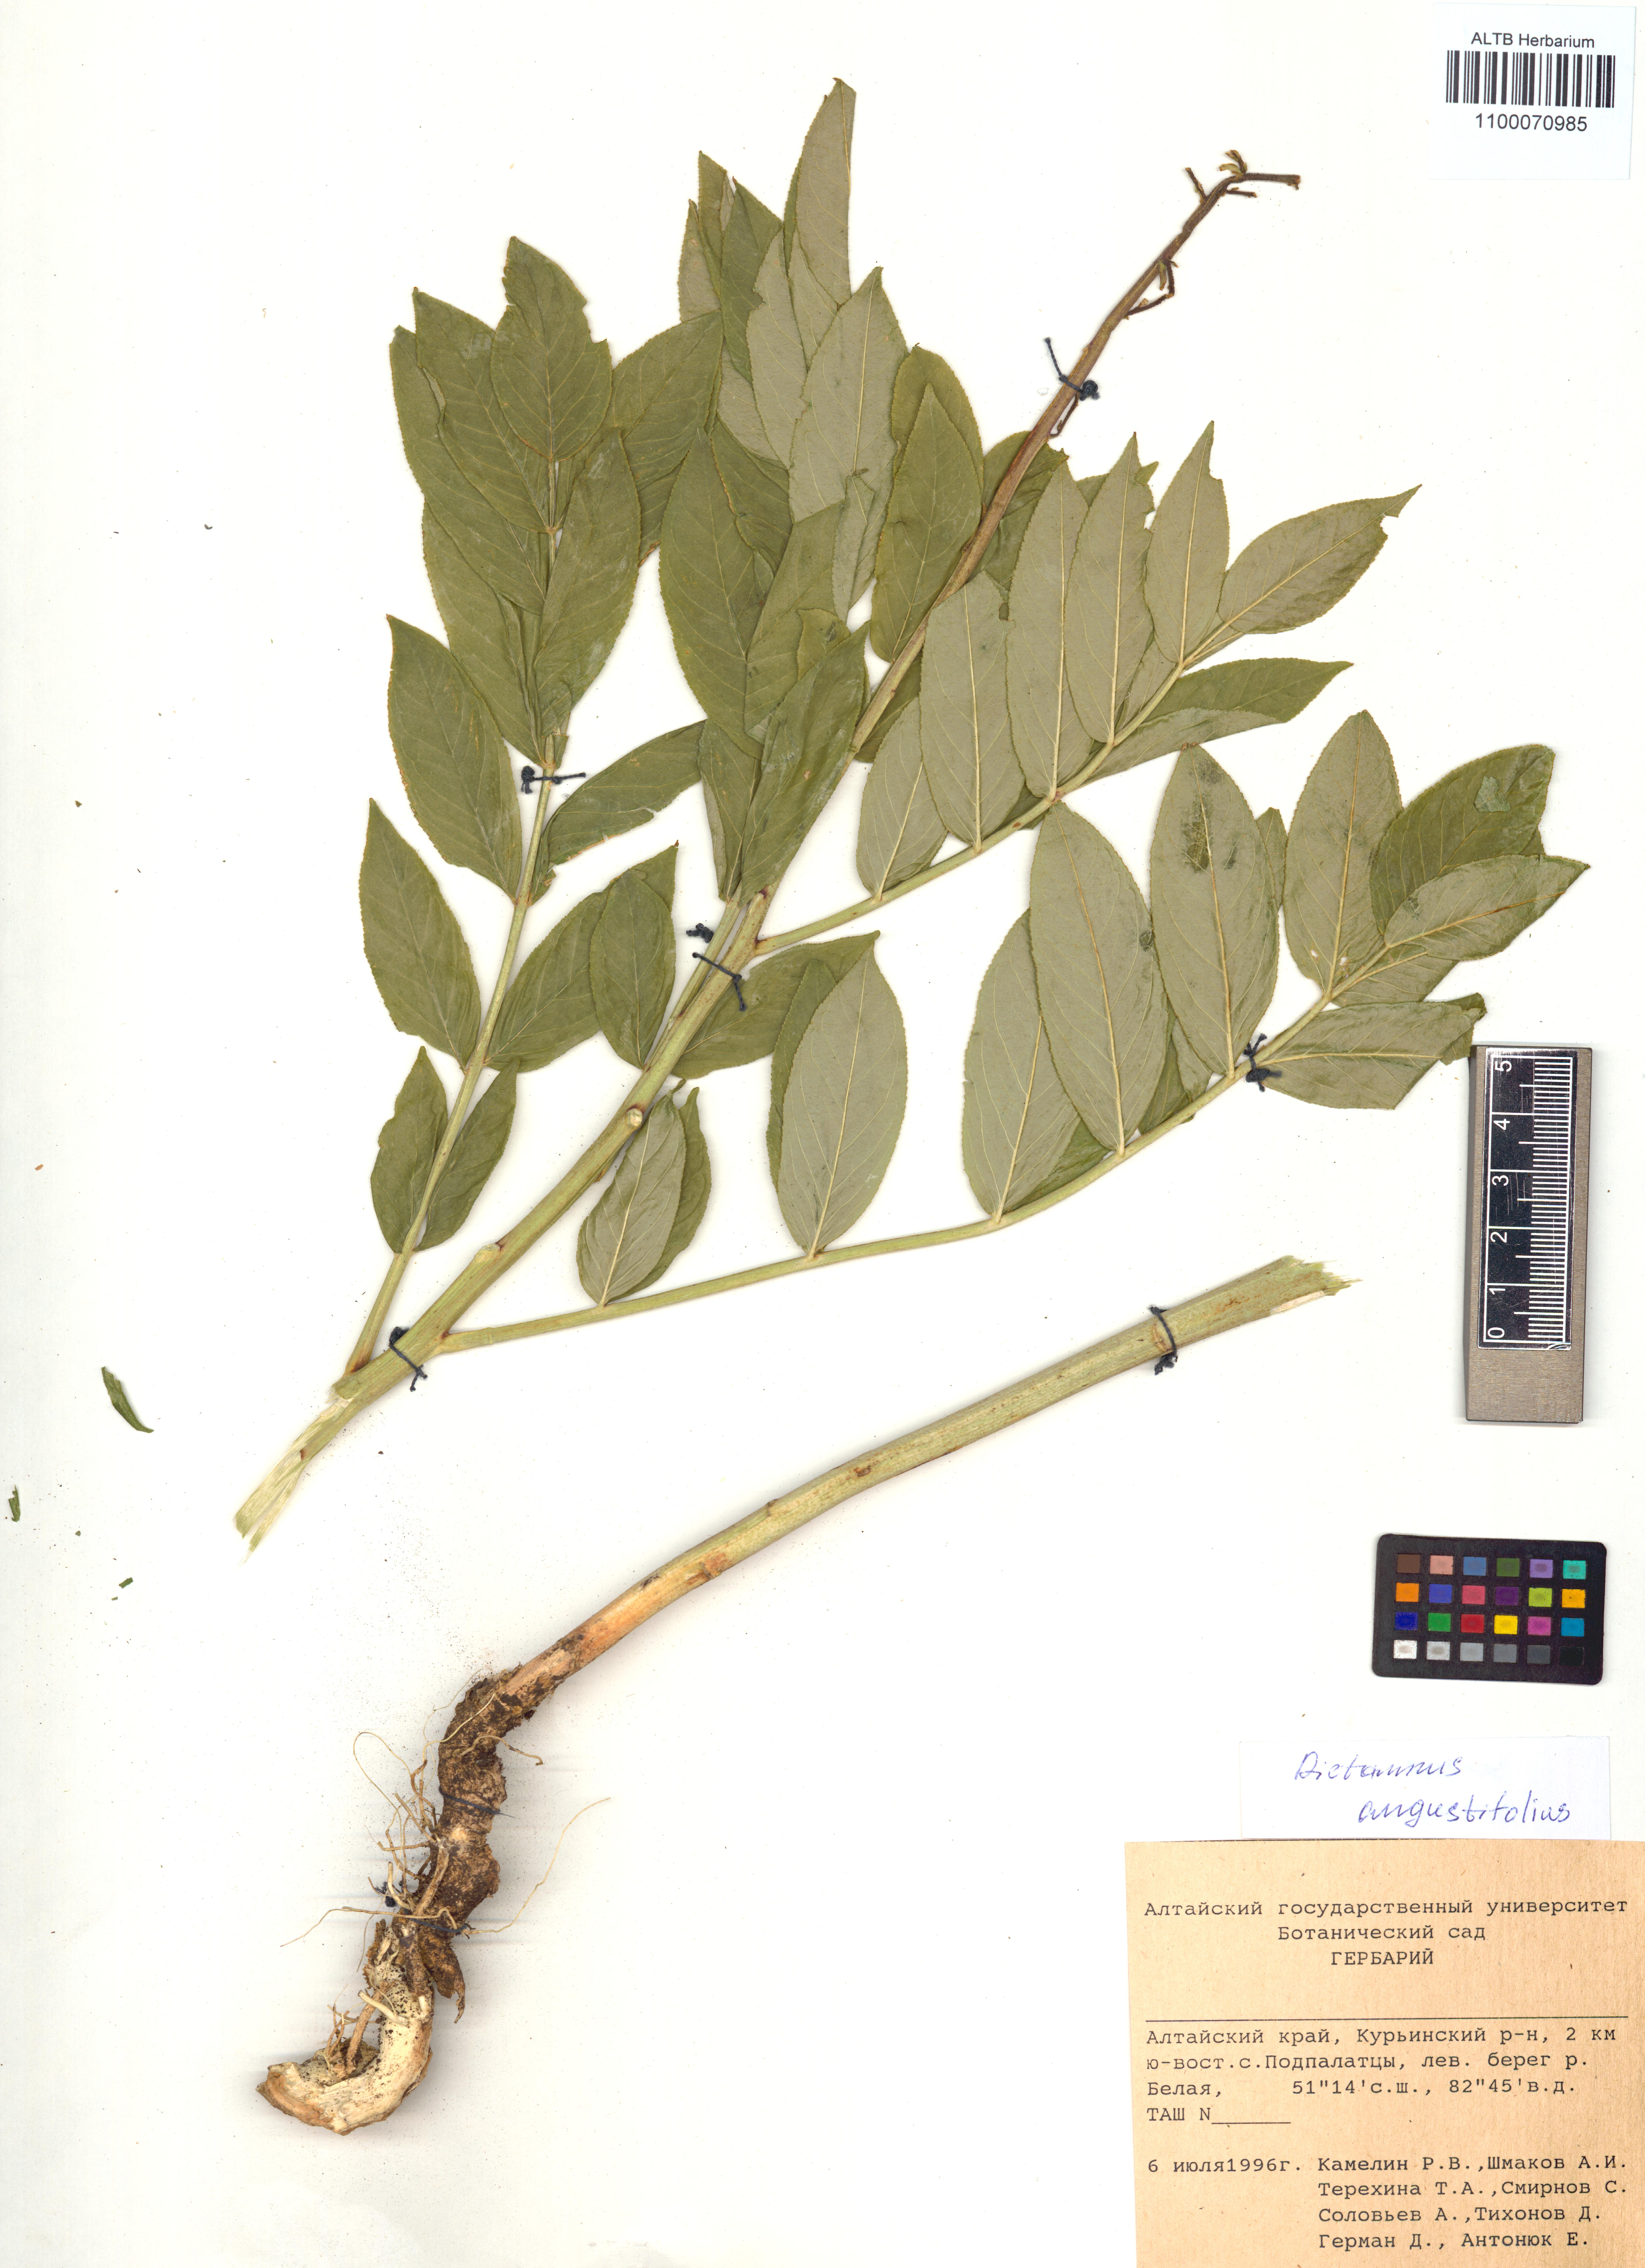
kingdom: Plantae
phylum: Tracheophyta
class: Magnoliopsida
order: Sapindales
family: Rutaceae
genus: Dictamnus
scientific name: Dictamnus albus
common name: Gasplant
